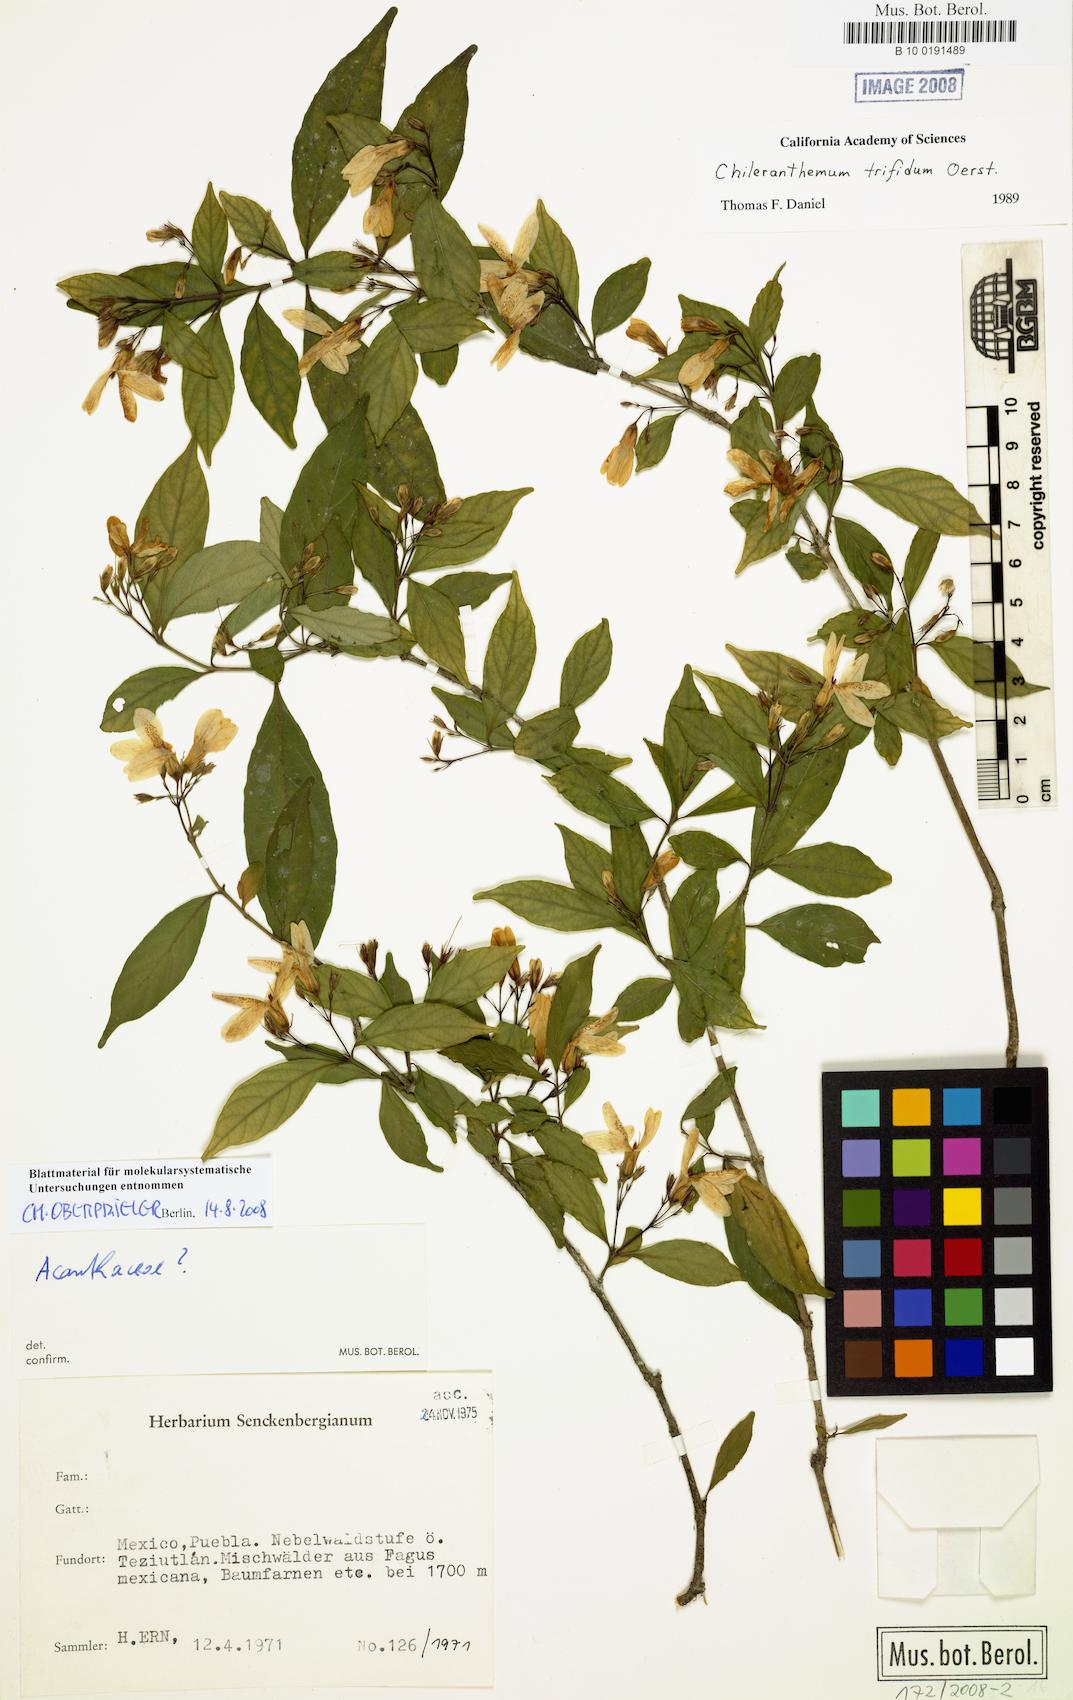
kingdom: Plantae
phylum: Tracheophyta
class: Magnoliopsida
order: Lamiales
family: Acanthaceae
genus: Chileranthemum
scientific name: Chileranthemum trifidum
